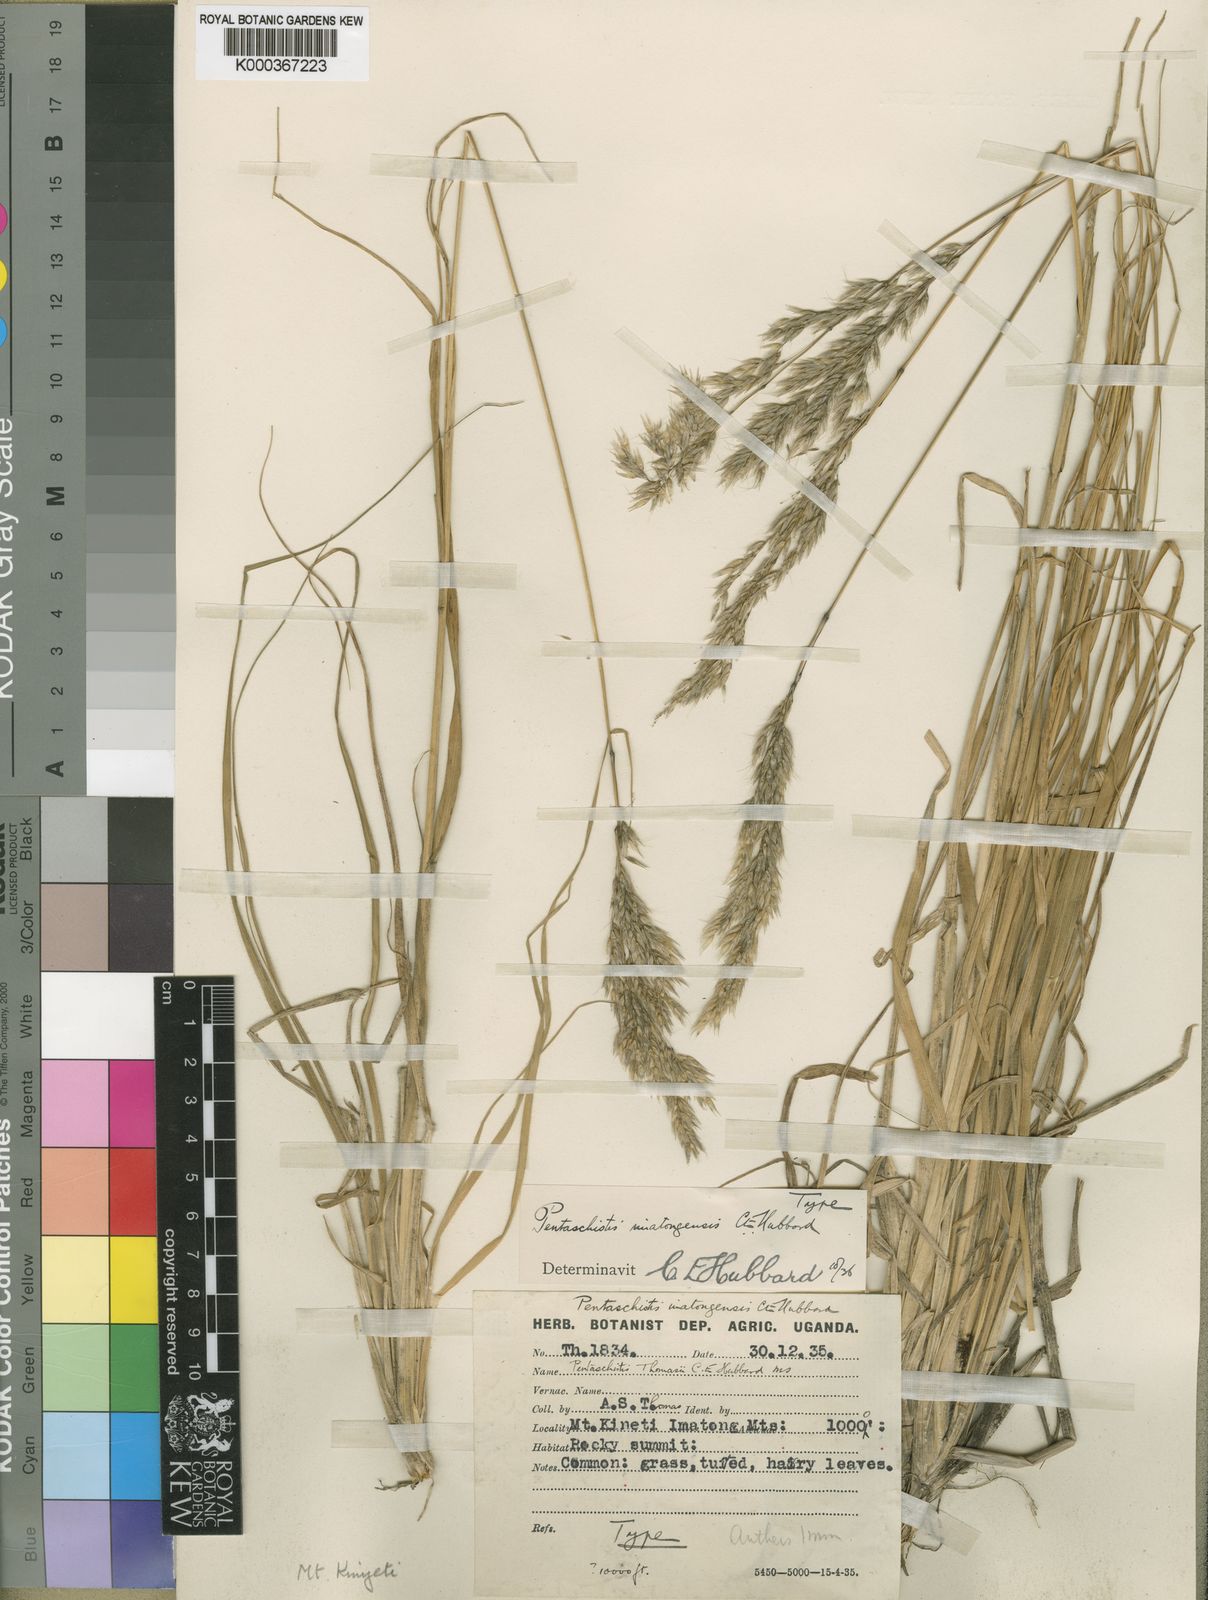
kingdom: Plantae
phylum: Tracheophyta
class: Liliopsida
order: Poales
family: Poaceae
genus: Pentameris
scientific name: Pentameris pictigluma
